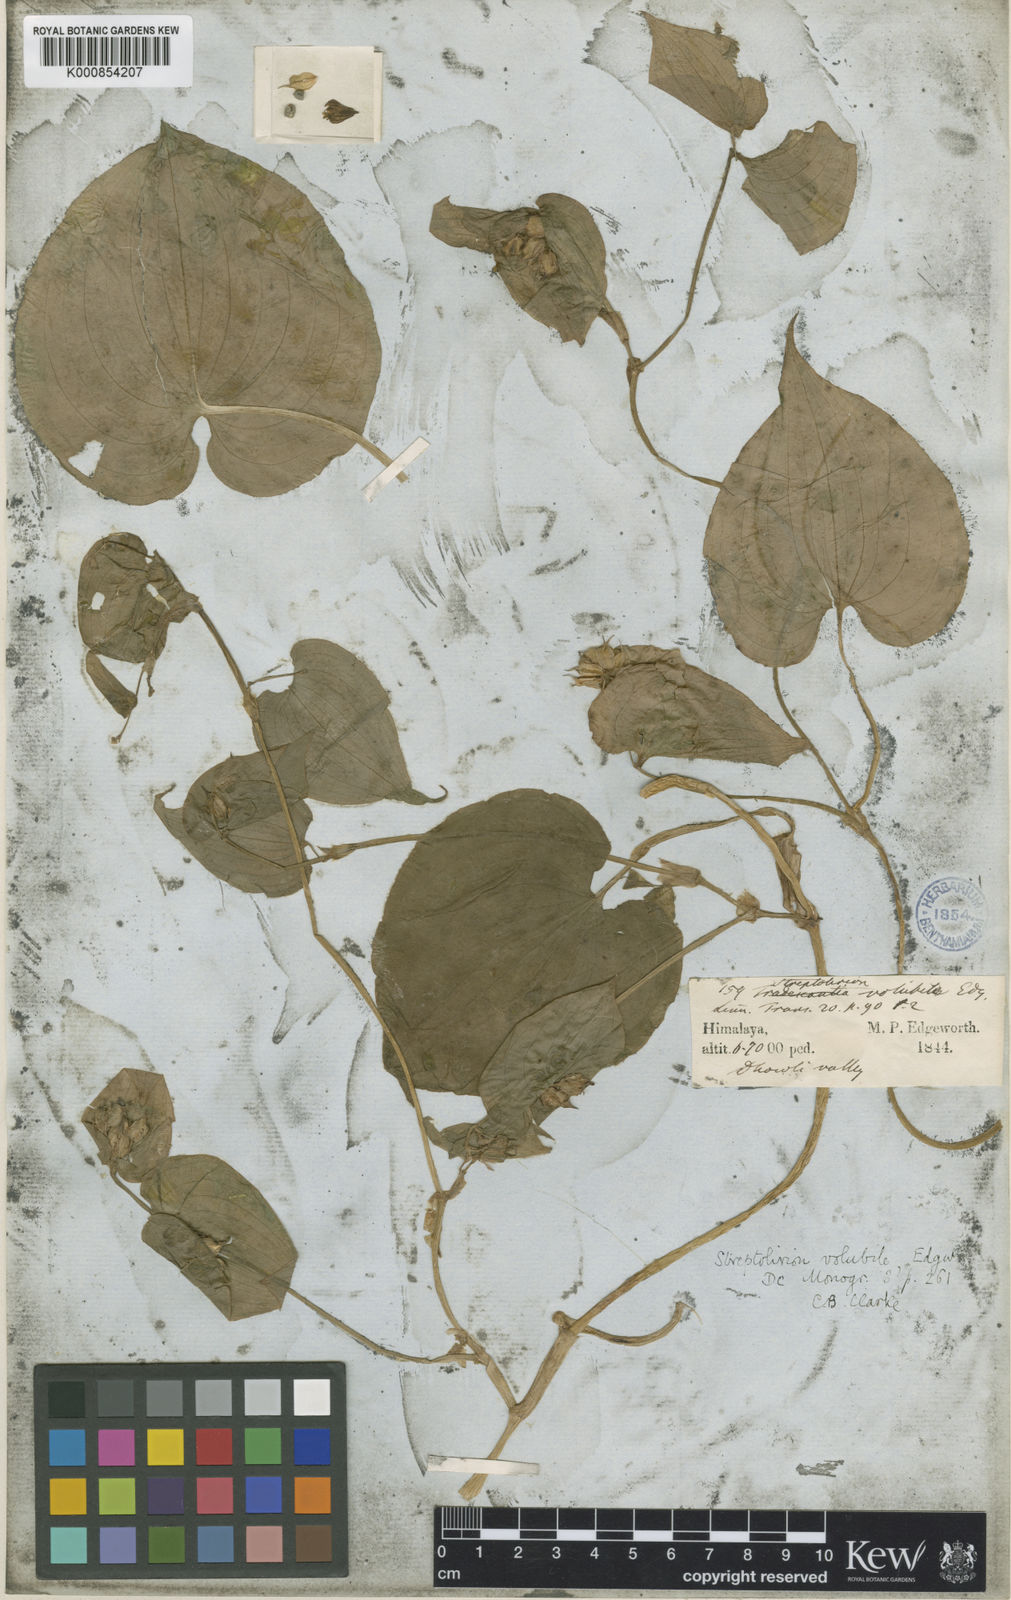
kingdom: Plantae
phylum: Tracheophyta
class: Liliopsida
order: Commelinales
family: Commelinaceae
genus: Streptolirion
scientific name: Streptolirion volubile
